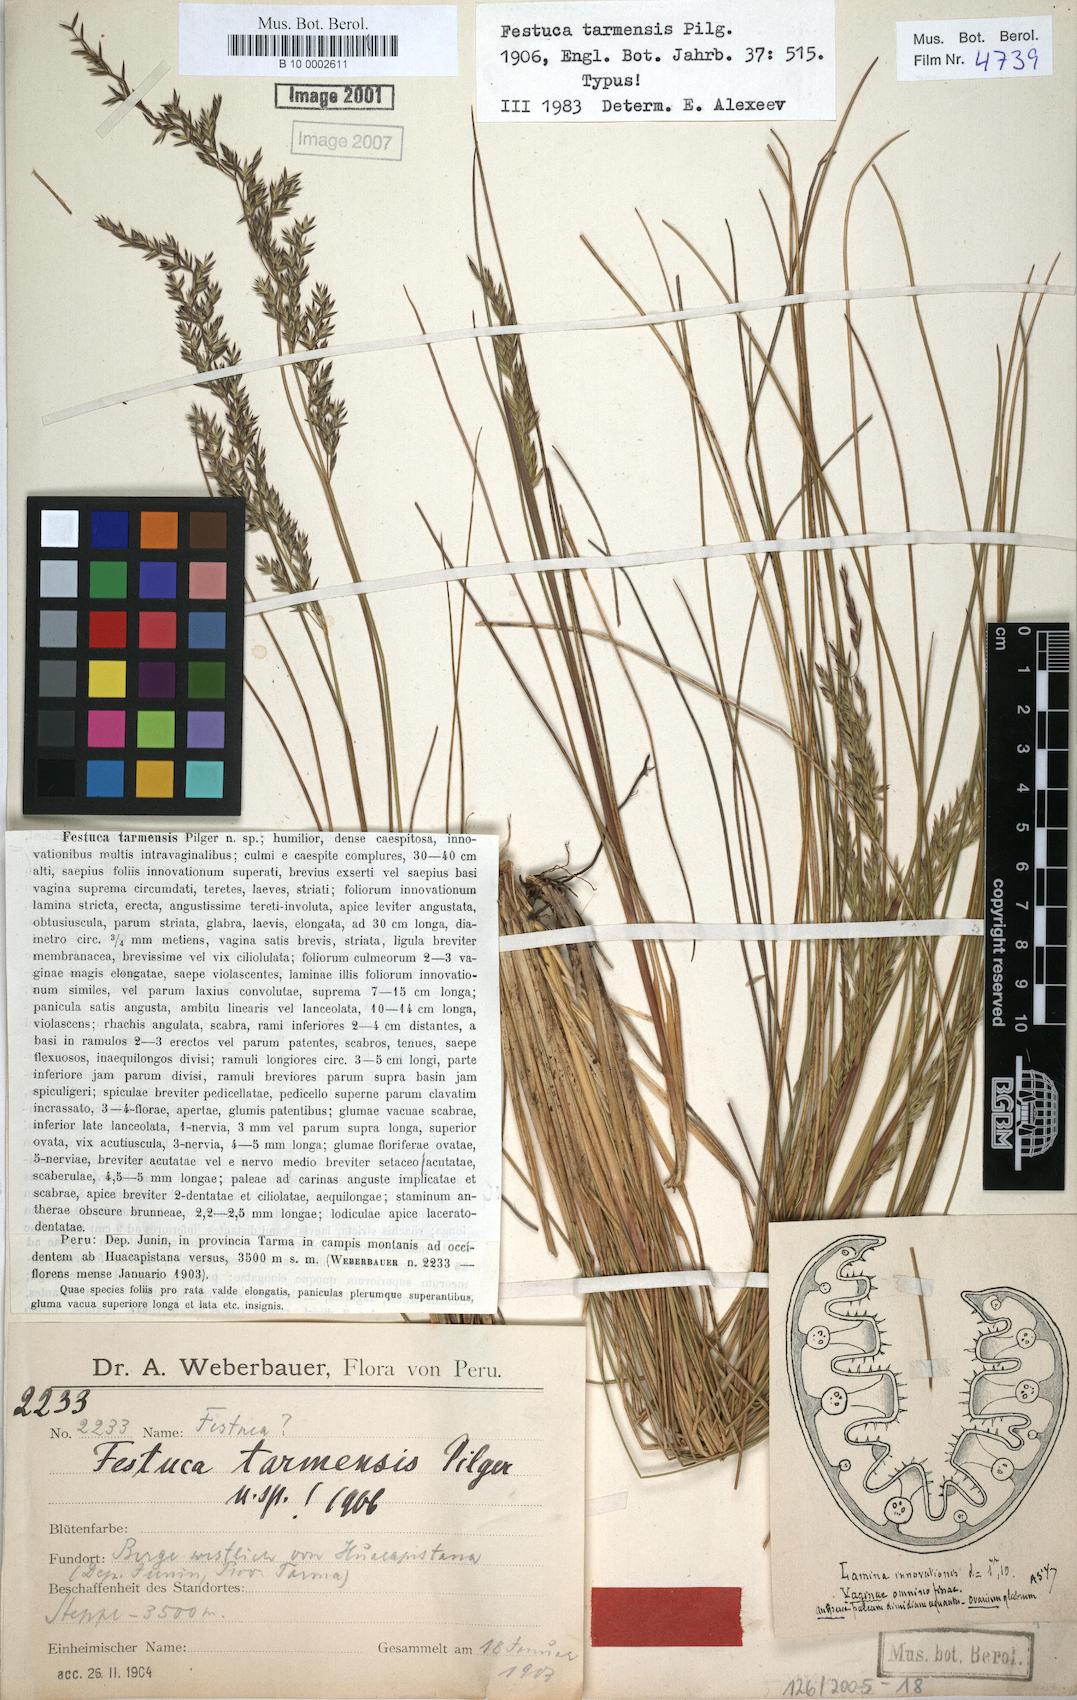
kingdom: Plantae
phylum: Tracheophyta
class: Liliopsida
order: Poales
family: Poaceae
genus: Festuca
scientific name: Festuca
